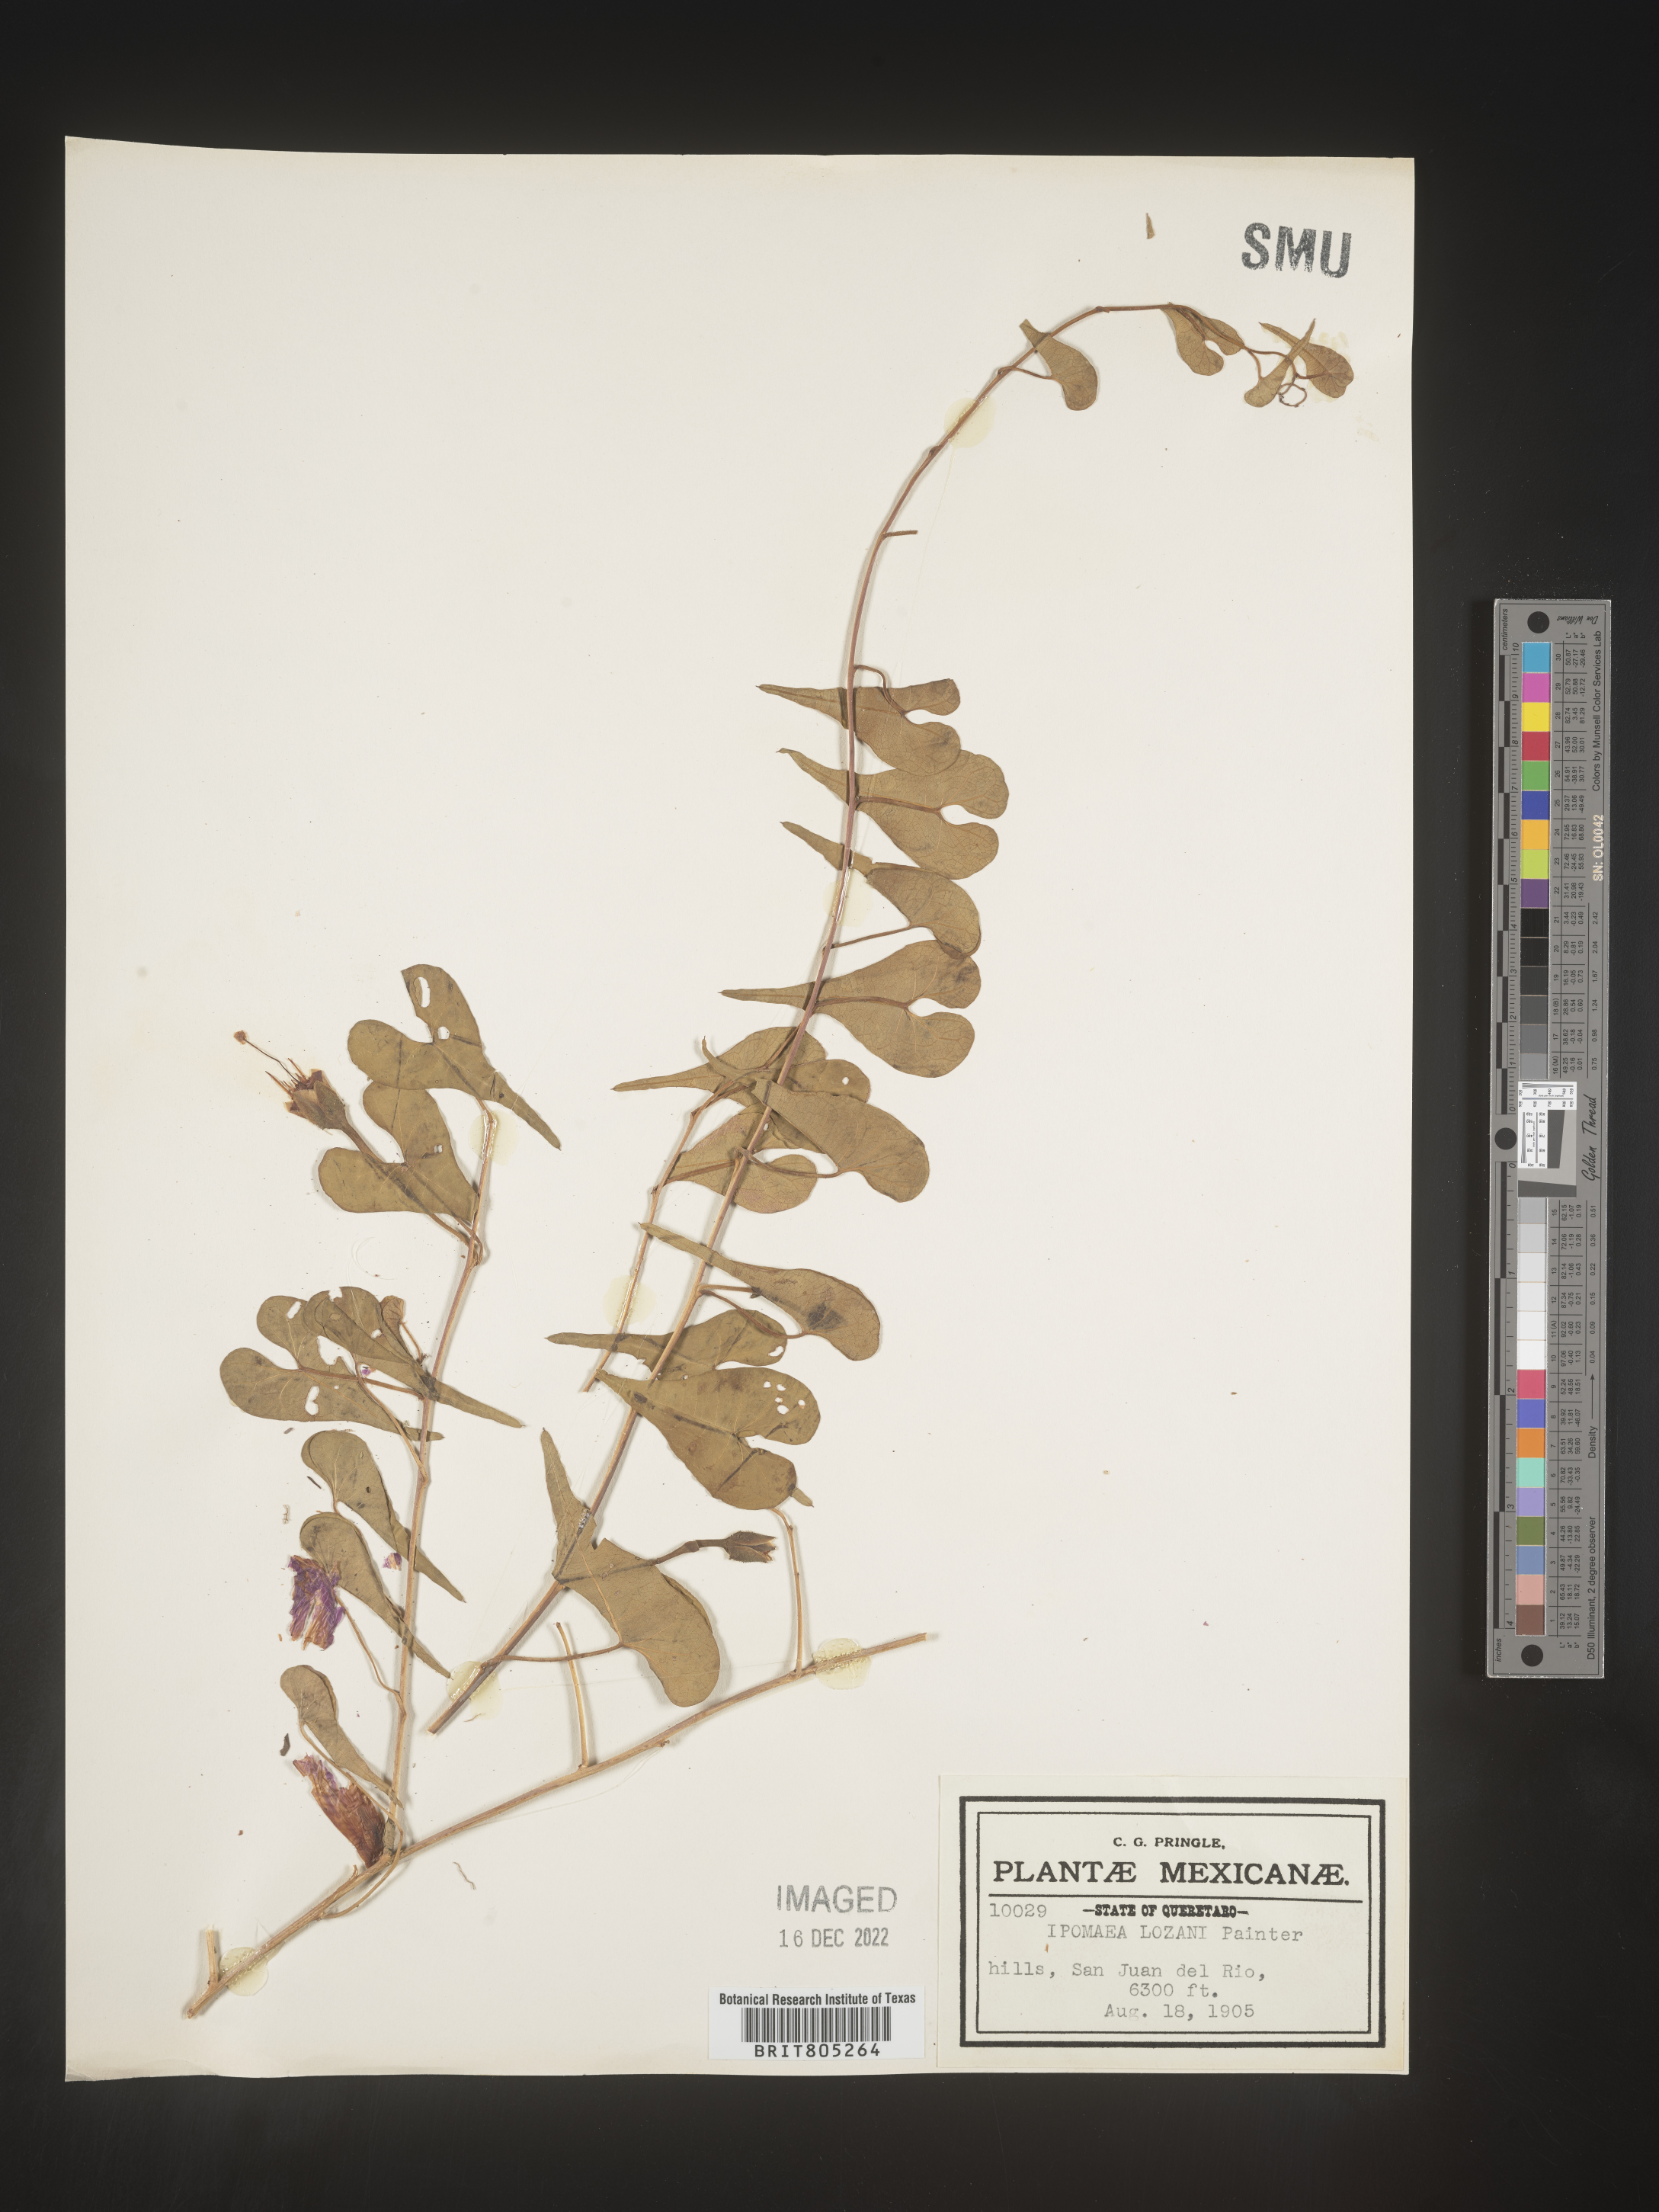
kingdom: Plantae
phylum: Tracheophyta
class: Magnoliopsida
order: Solanales
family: Convolvulaceae
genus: Ipomoea
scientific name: Ipomoea
